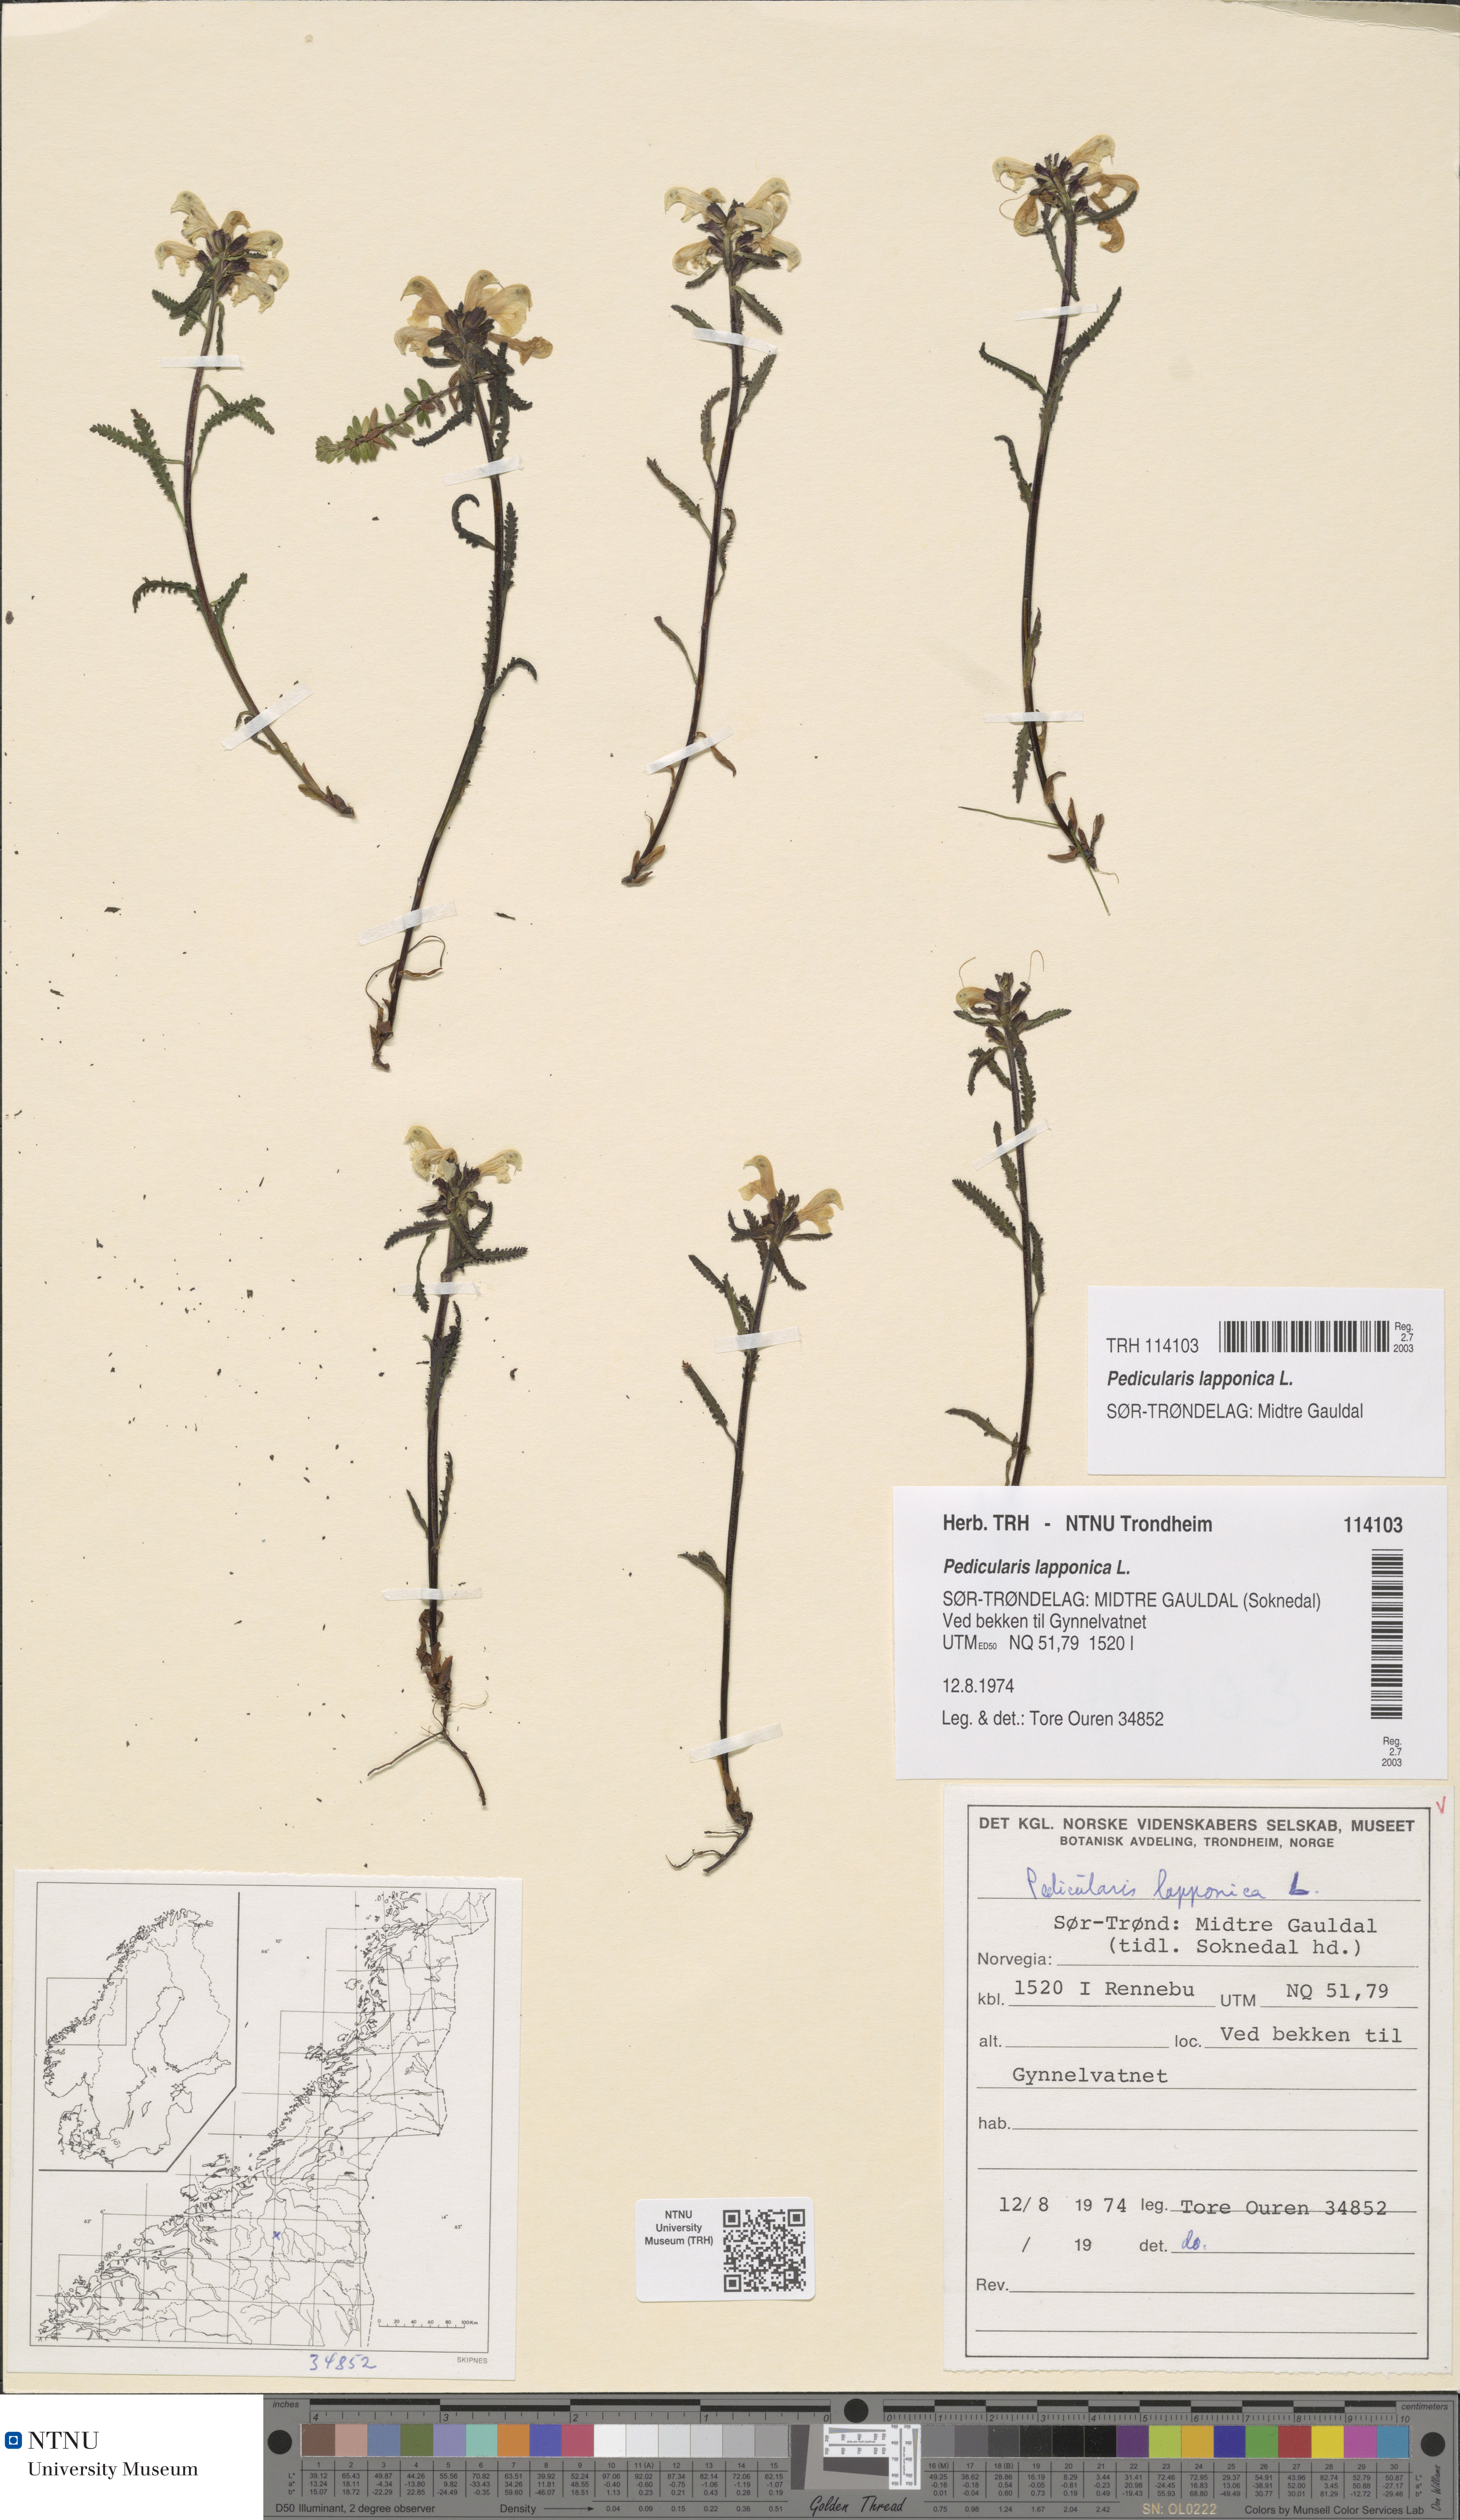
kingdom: Plantae
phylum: Tracheophyta
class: Magnoliopsida
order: Lamiales
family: Orobanchaceae
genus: Pedicularis
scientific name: Pedicularis lapponica
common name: Lapland lousewort
